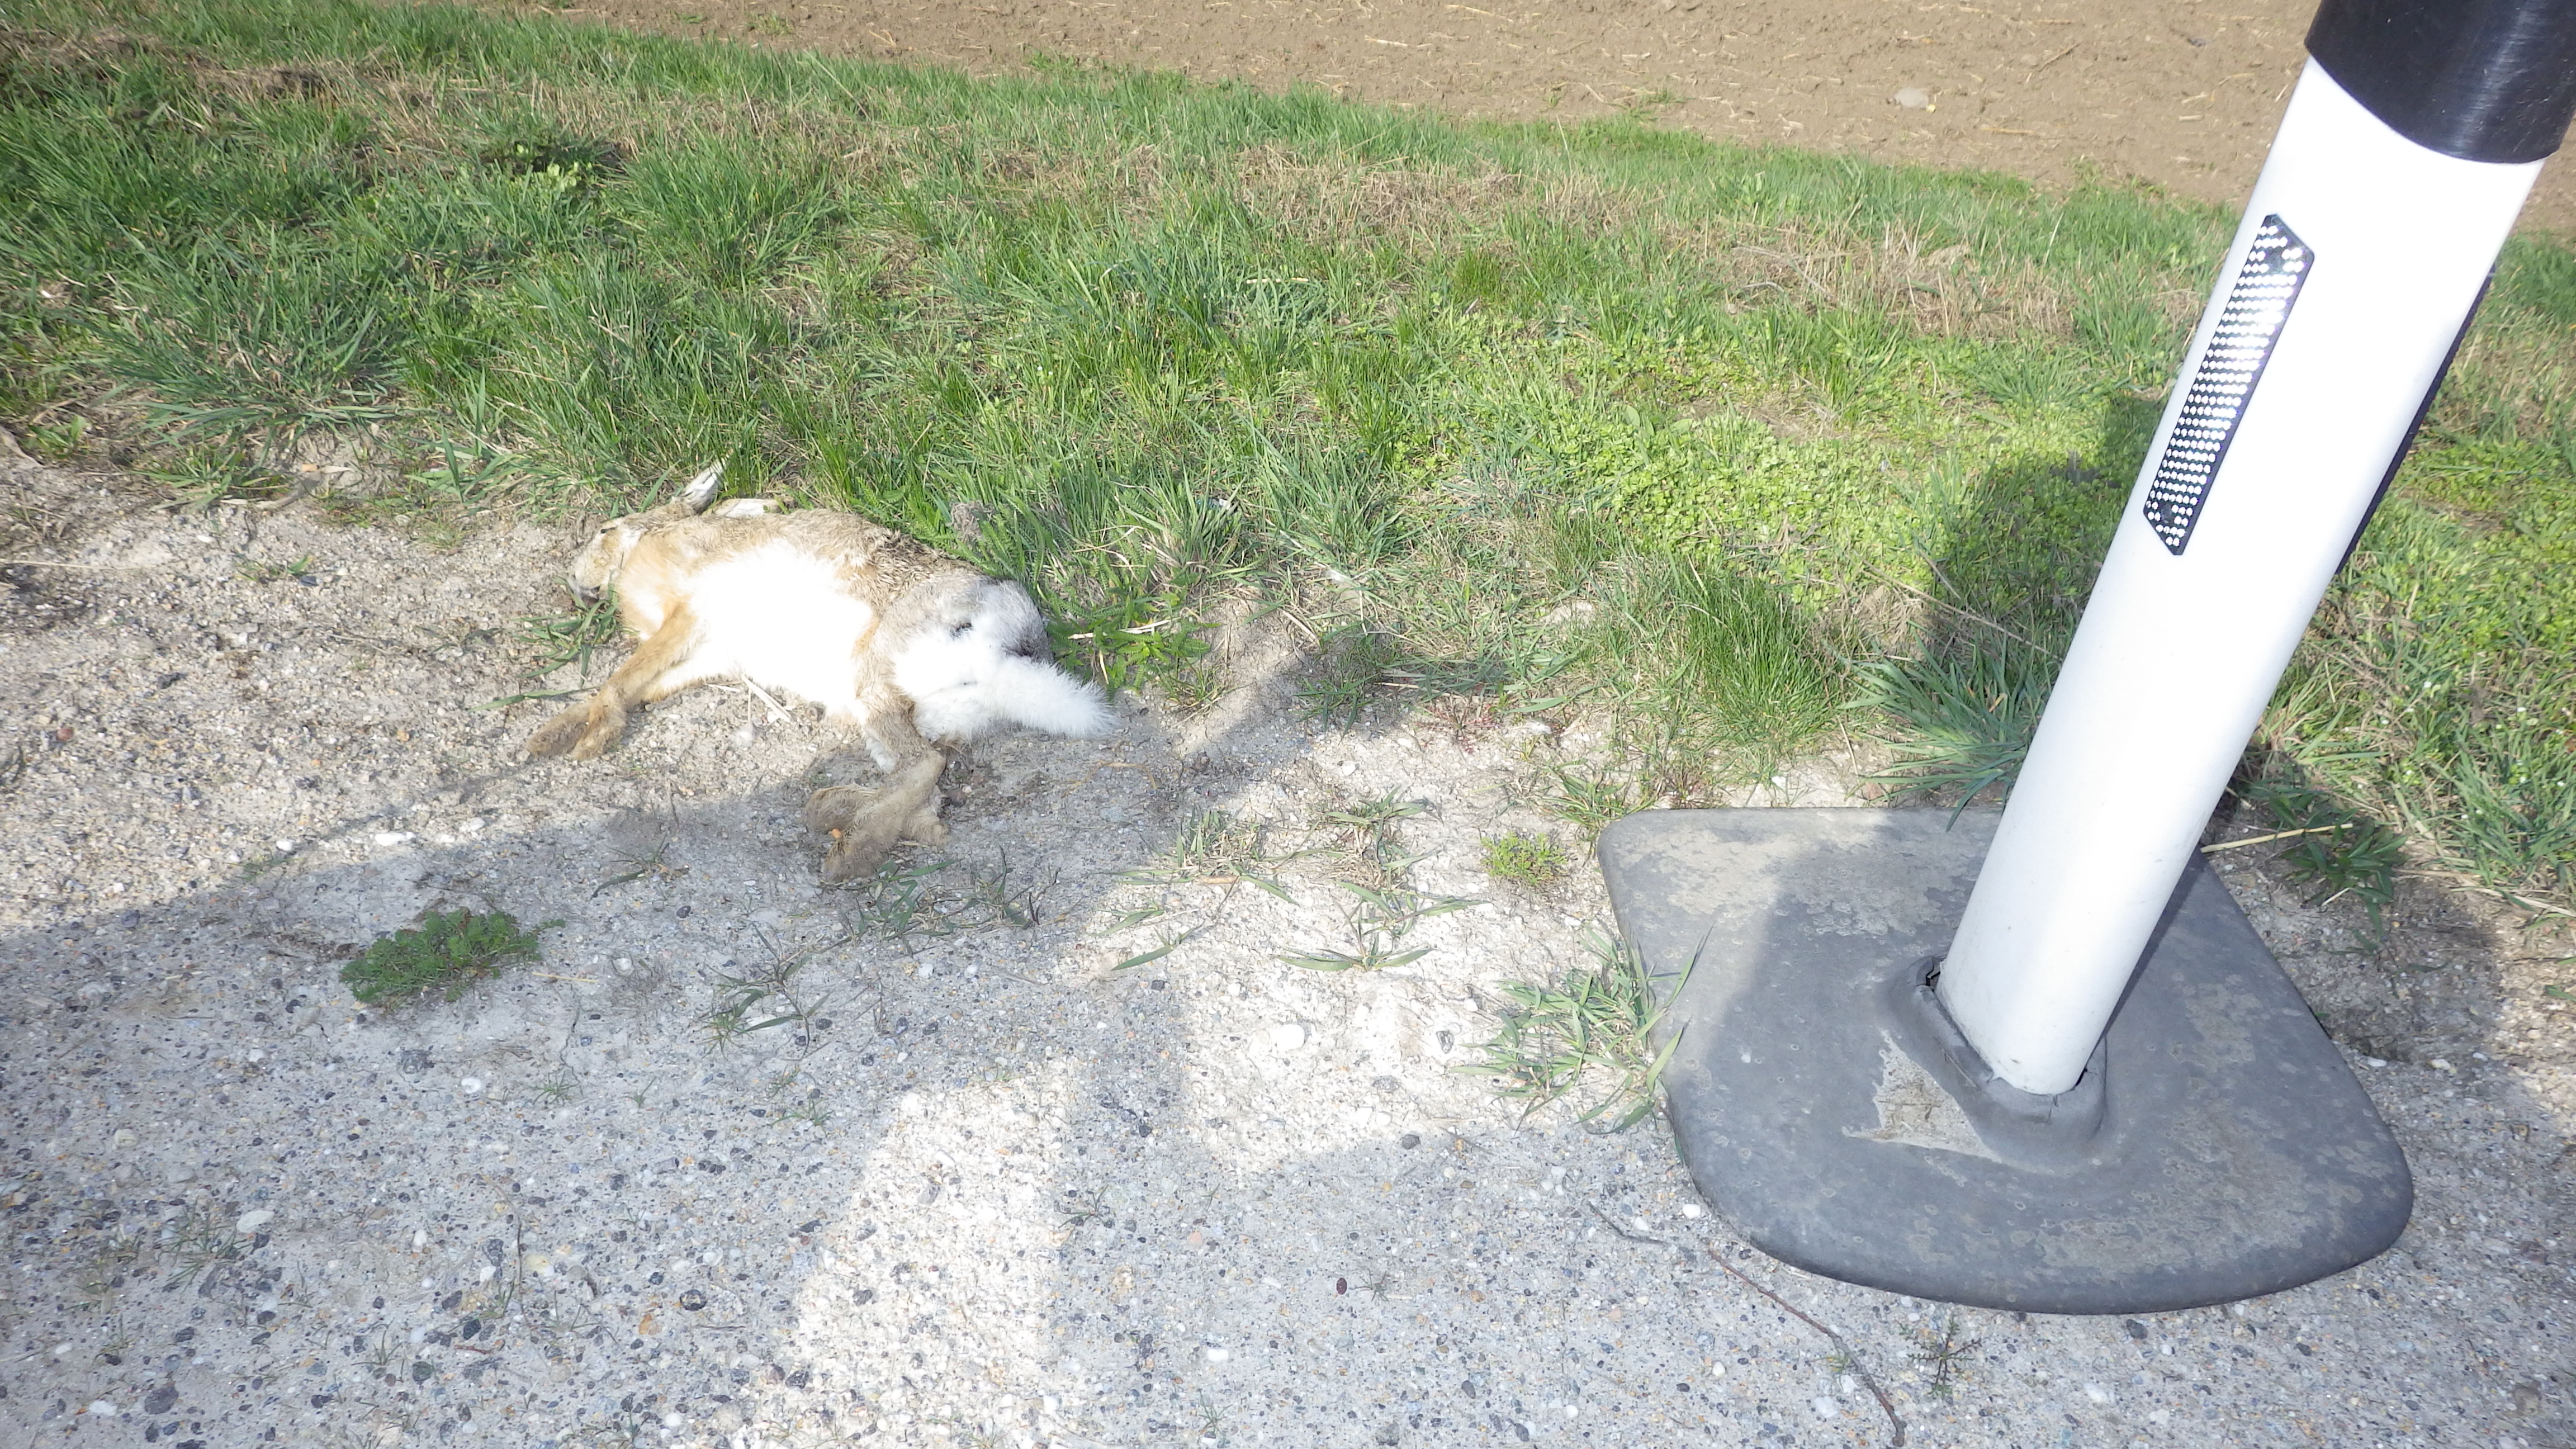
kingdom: Animalia
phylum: Chordata
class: Mammalia
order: Lagomorpha
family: Leporidae
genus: Lepus
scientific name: Lepus europaeus
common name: European hare
